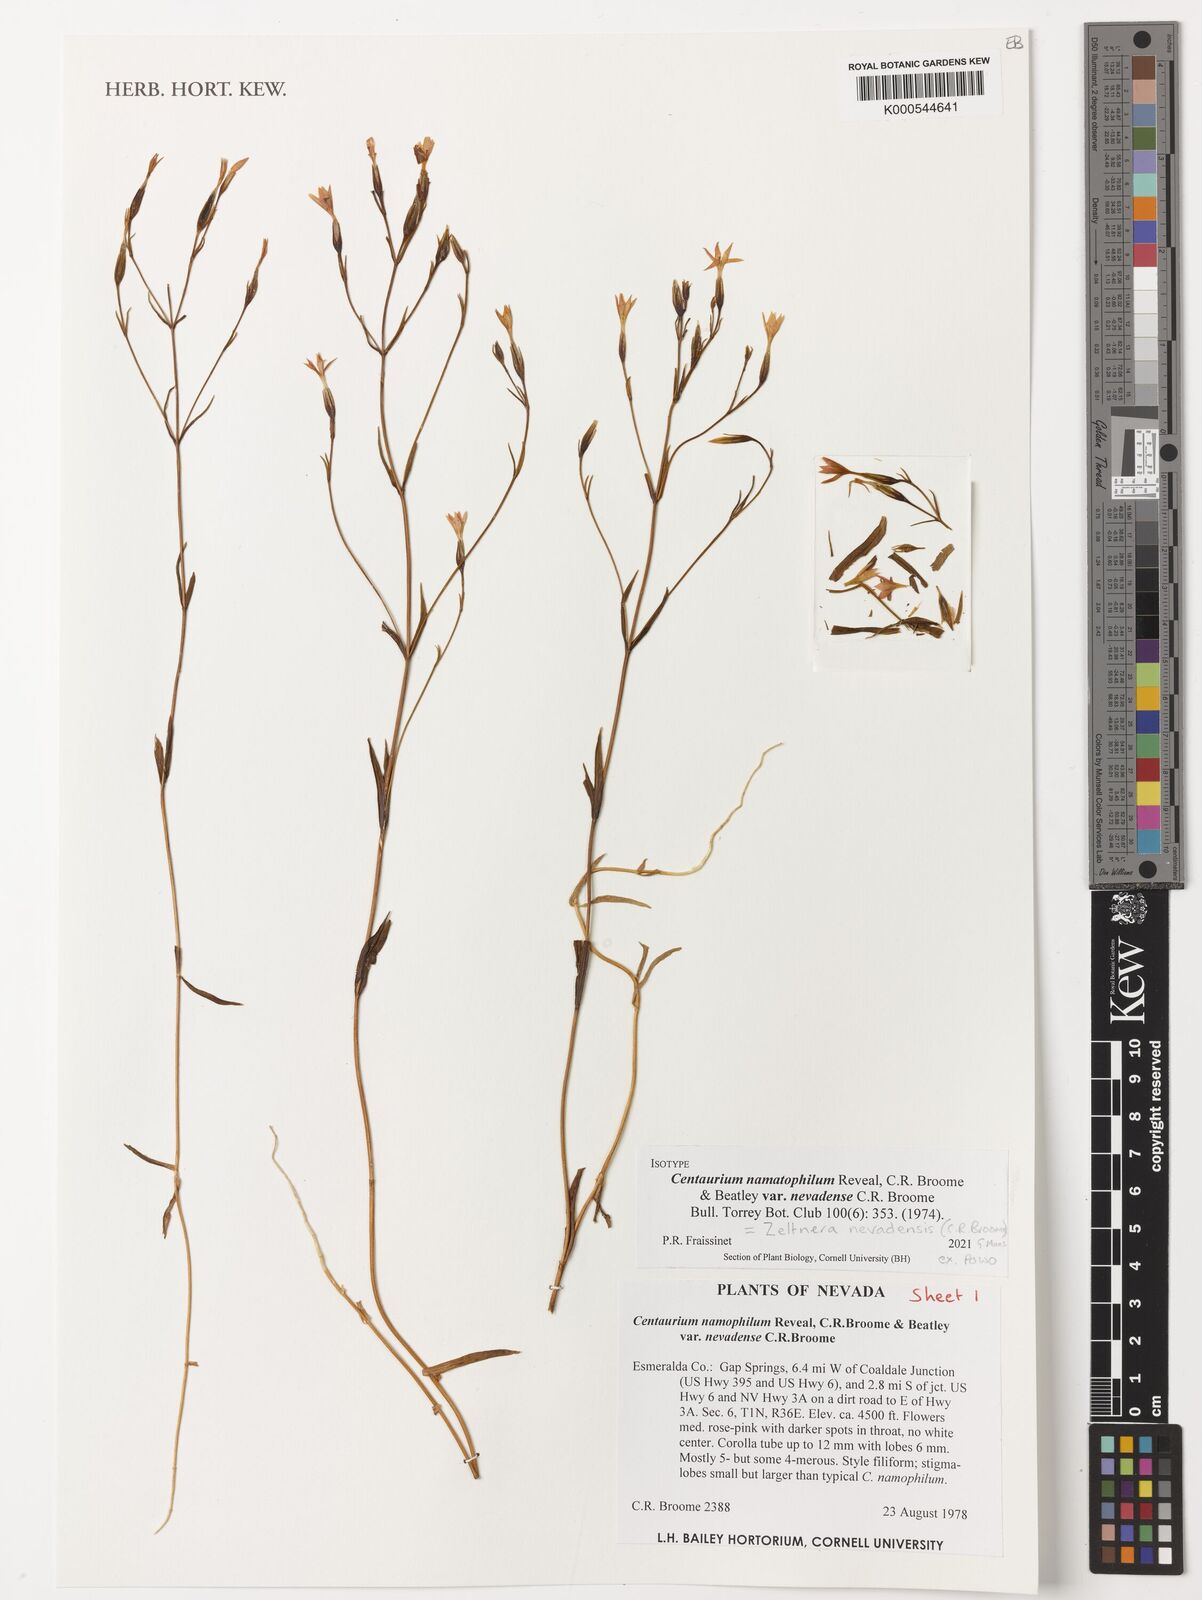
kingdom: Plantae
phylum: Tracheophyta
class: Magnoliopsida
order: Gentianales
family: Gentianaceae
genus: Zeltnera
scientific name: Zeltnera namatophila
